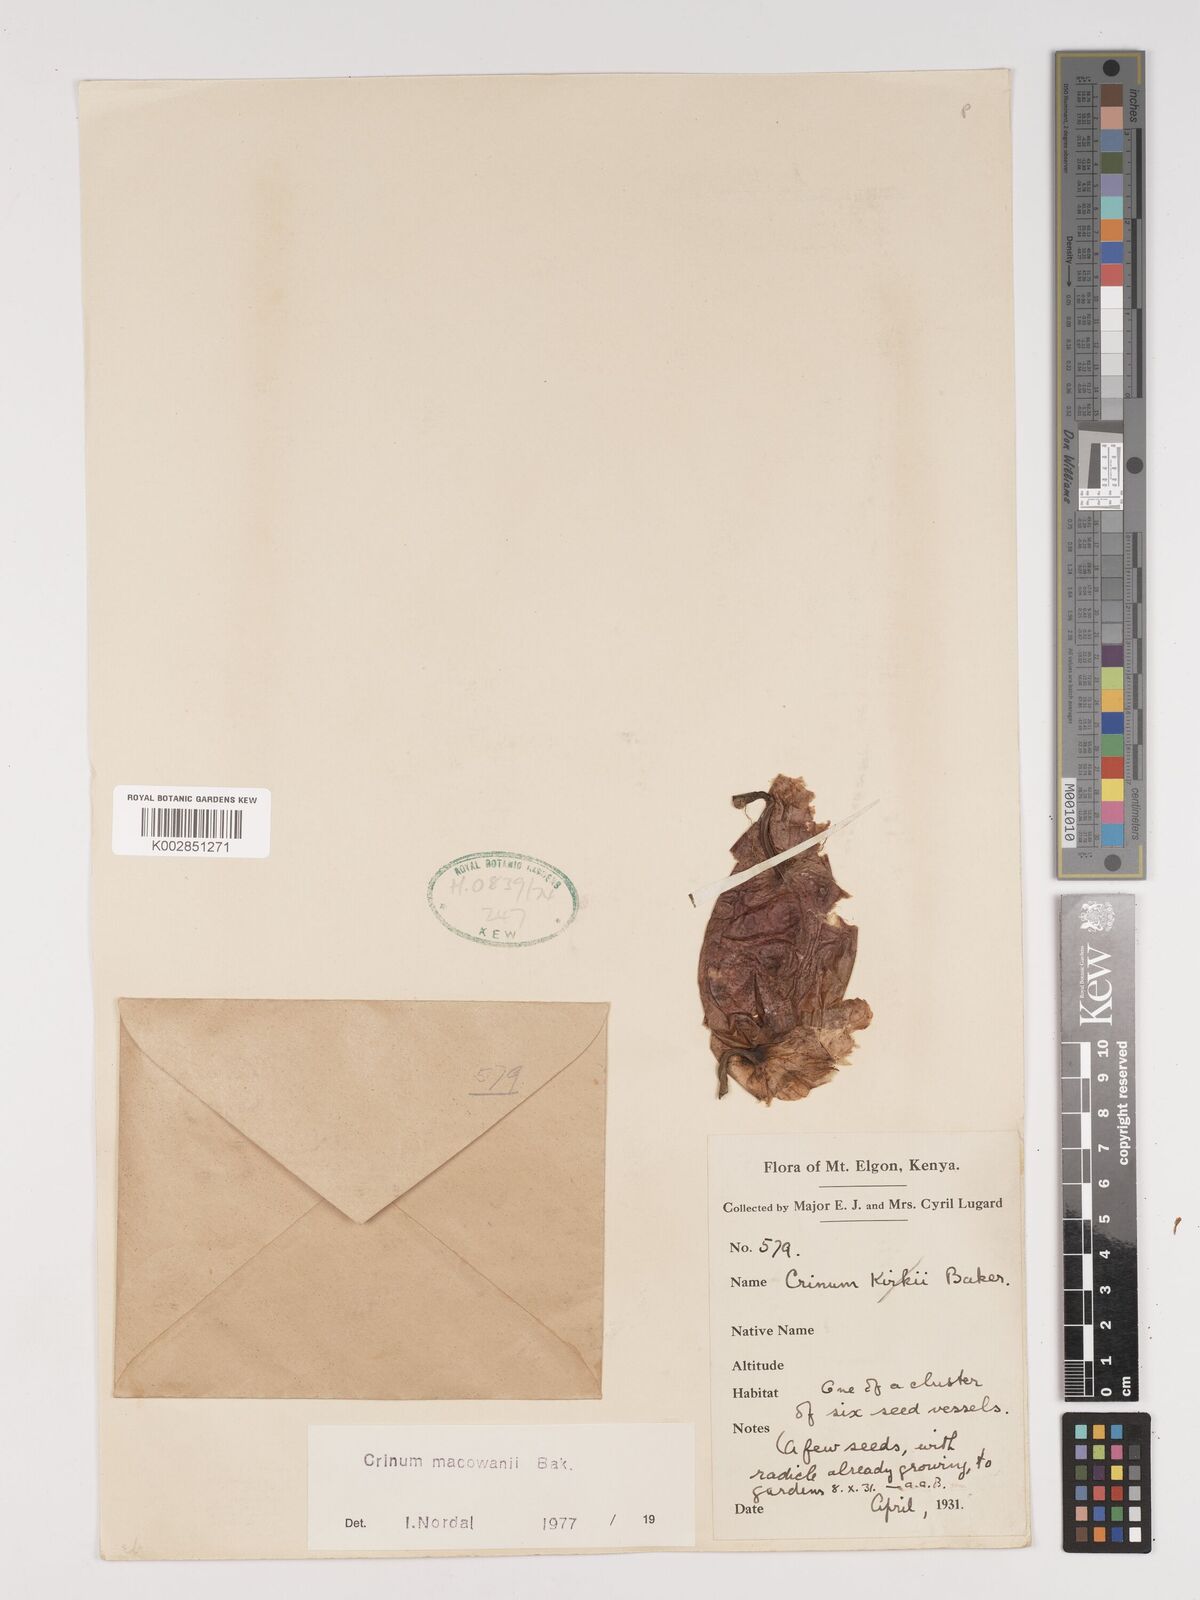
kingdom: Plantae
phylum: Tracheophyta
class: Liliopsida
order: Asparagales
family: Amaryllidaceae
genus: Crinum
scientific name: Crinum macowanii
